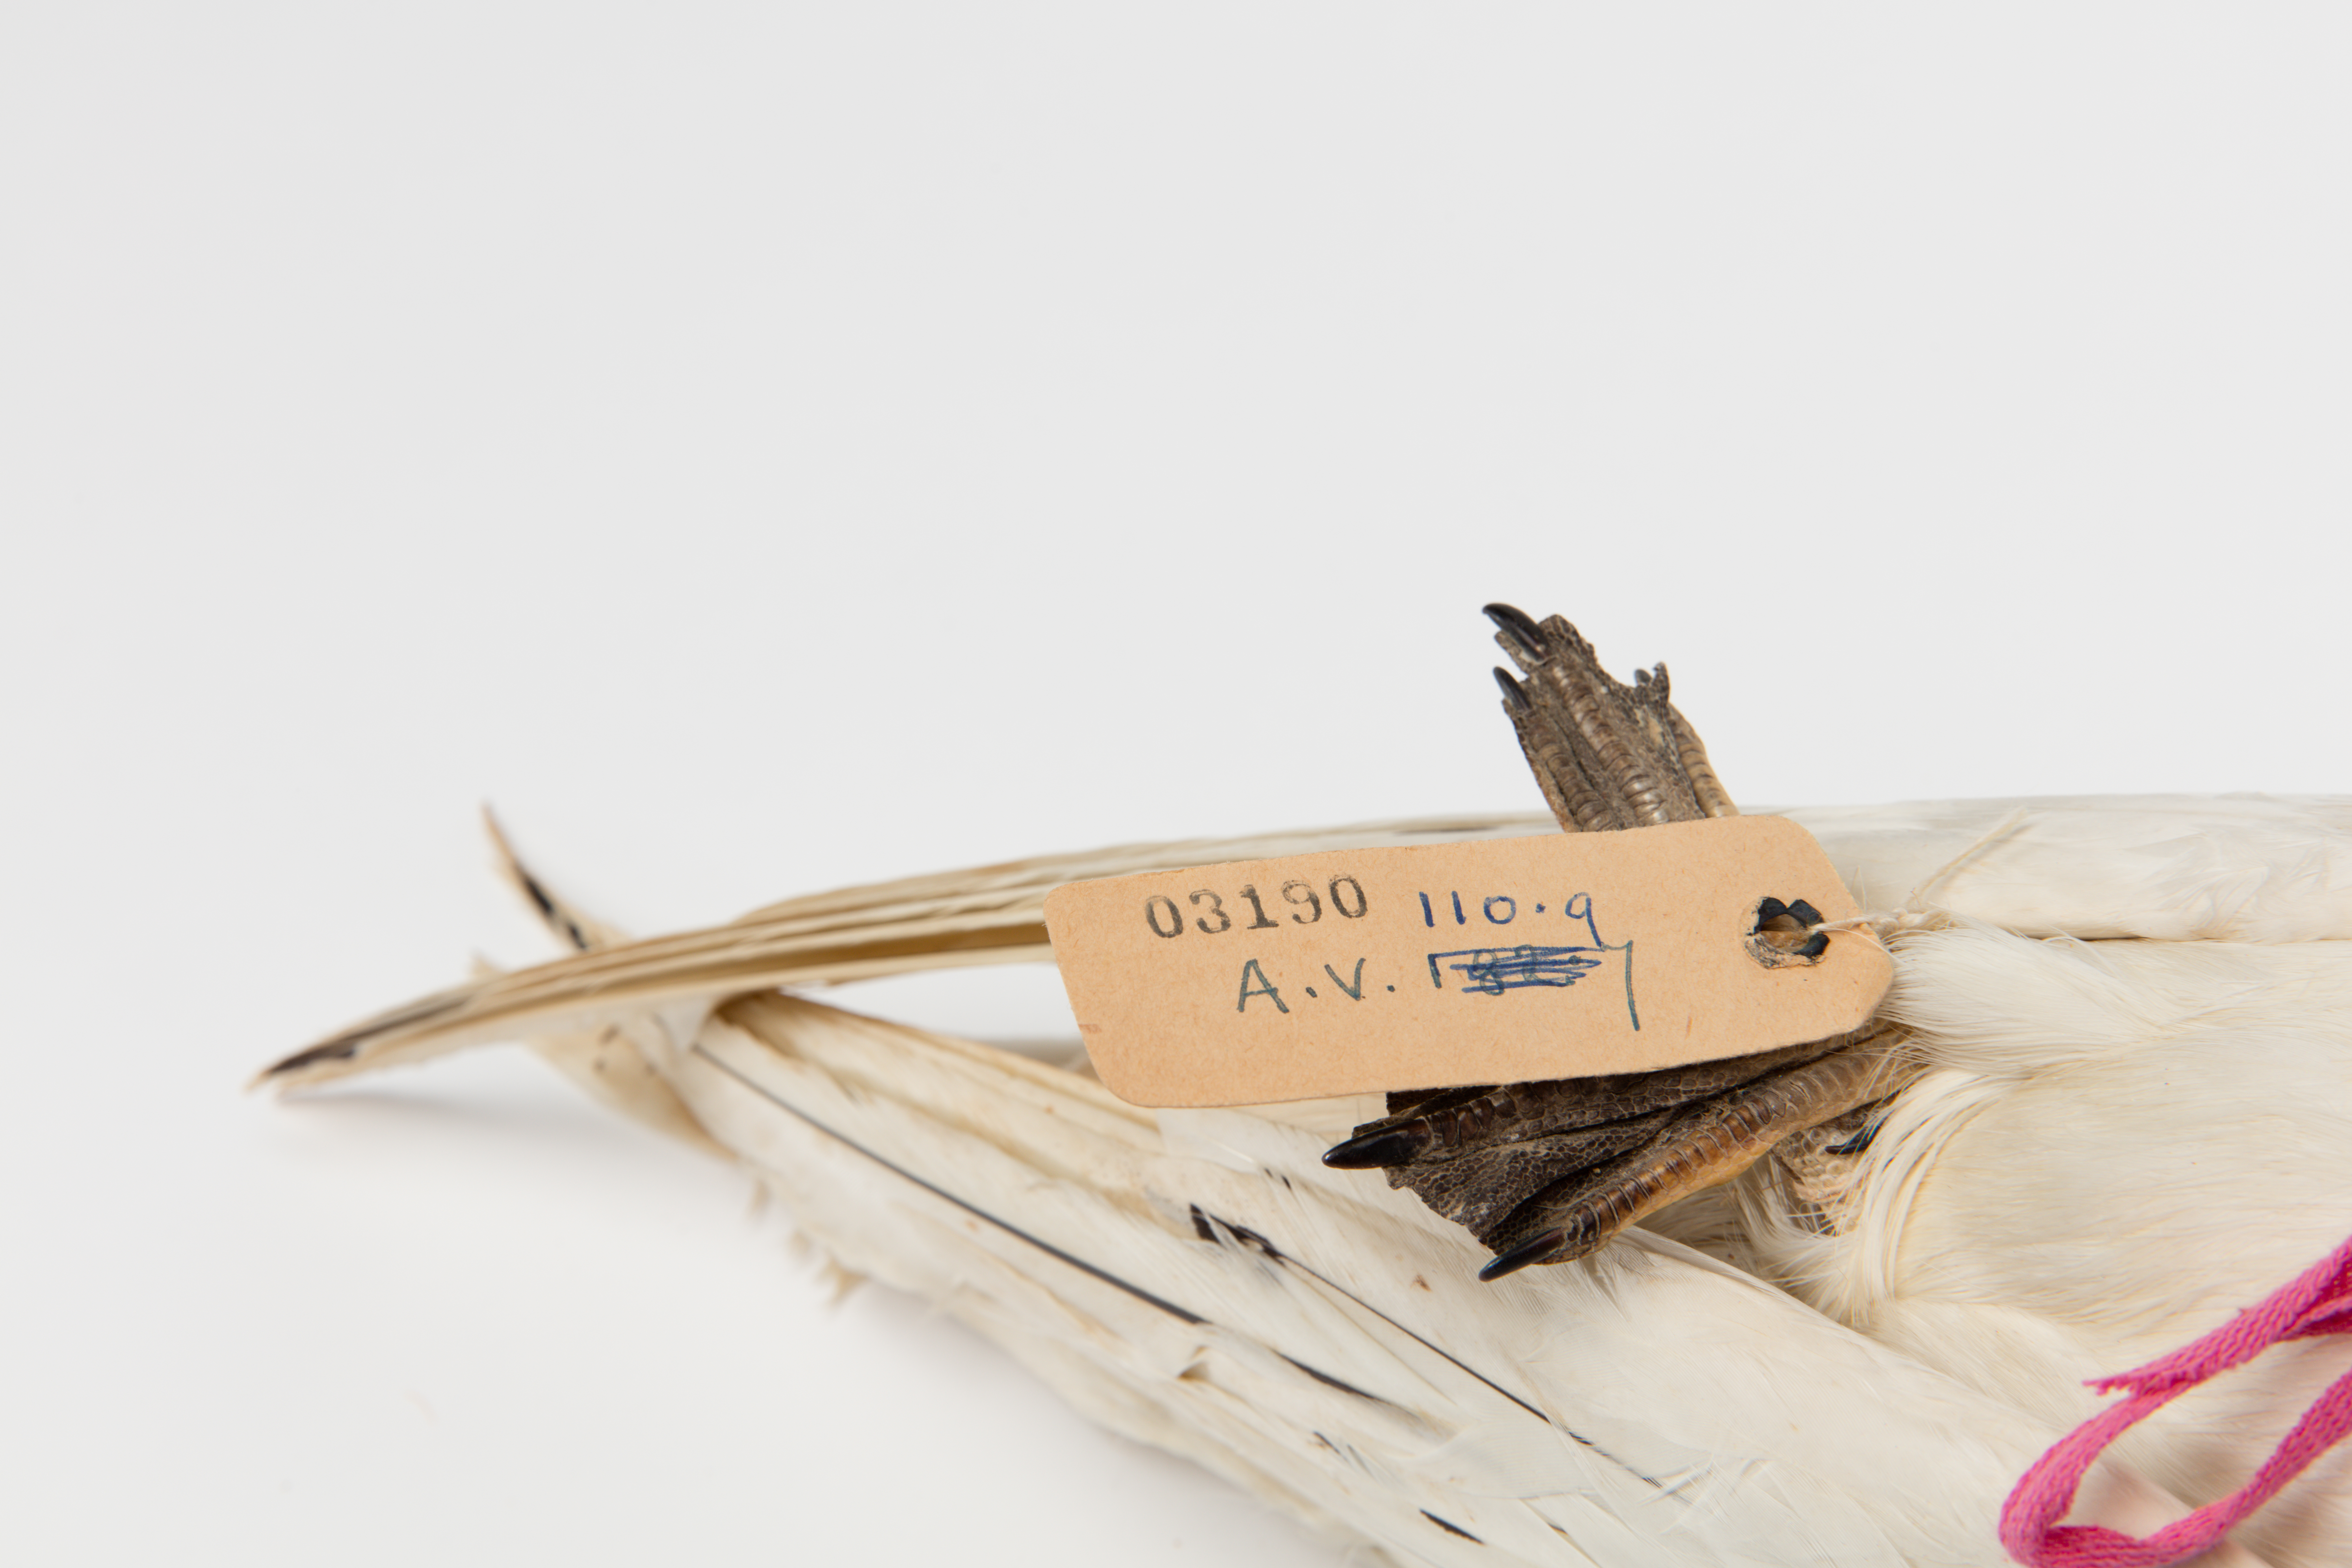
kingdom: Animalia
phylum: Chordata
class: Aves
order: Phaethontiformes
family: Phaethontidae
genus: Phaethon
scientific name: Phaethon rubricauda
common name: Red-tailed tropicbird
